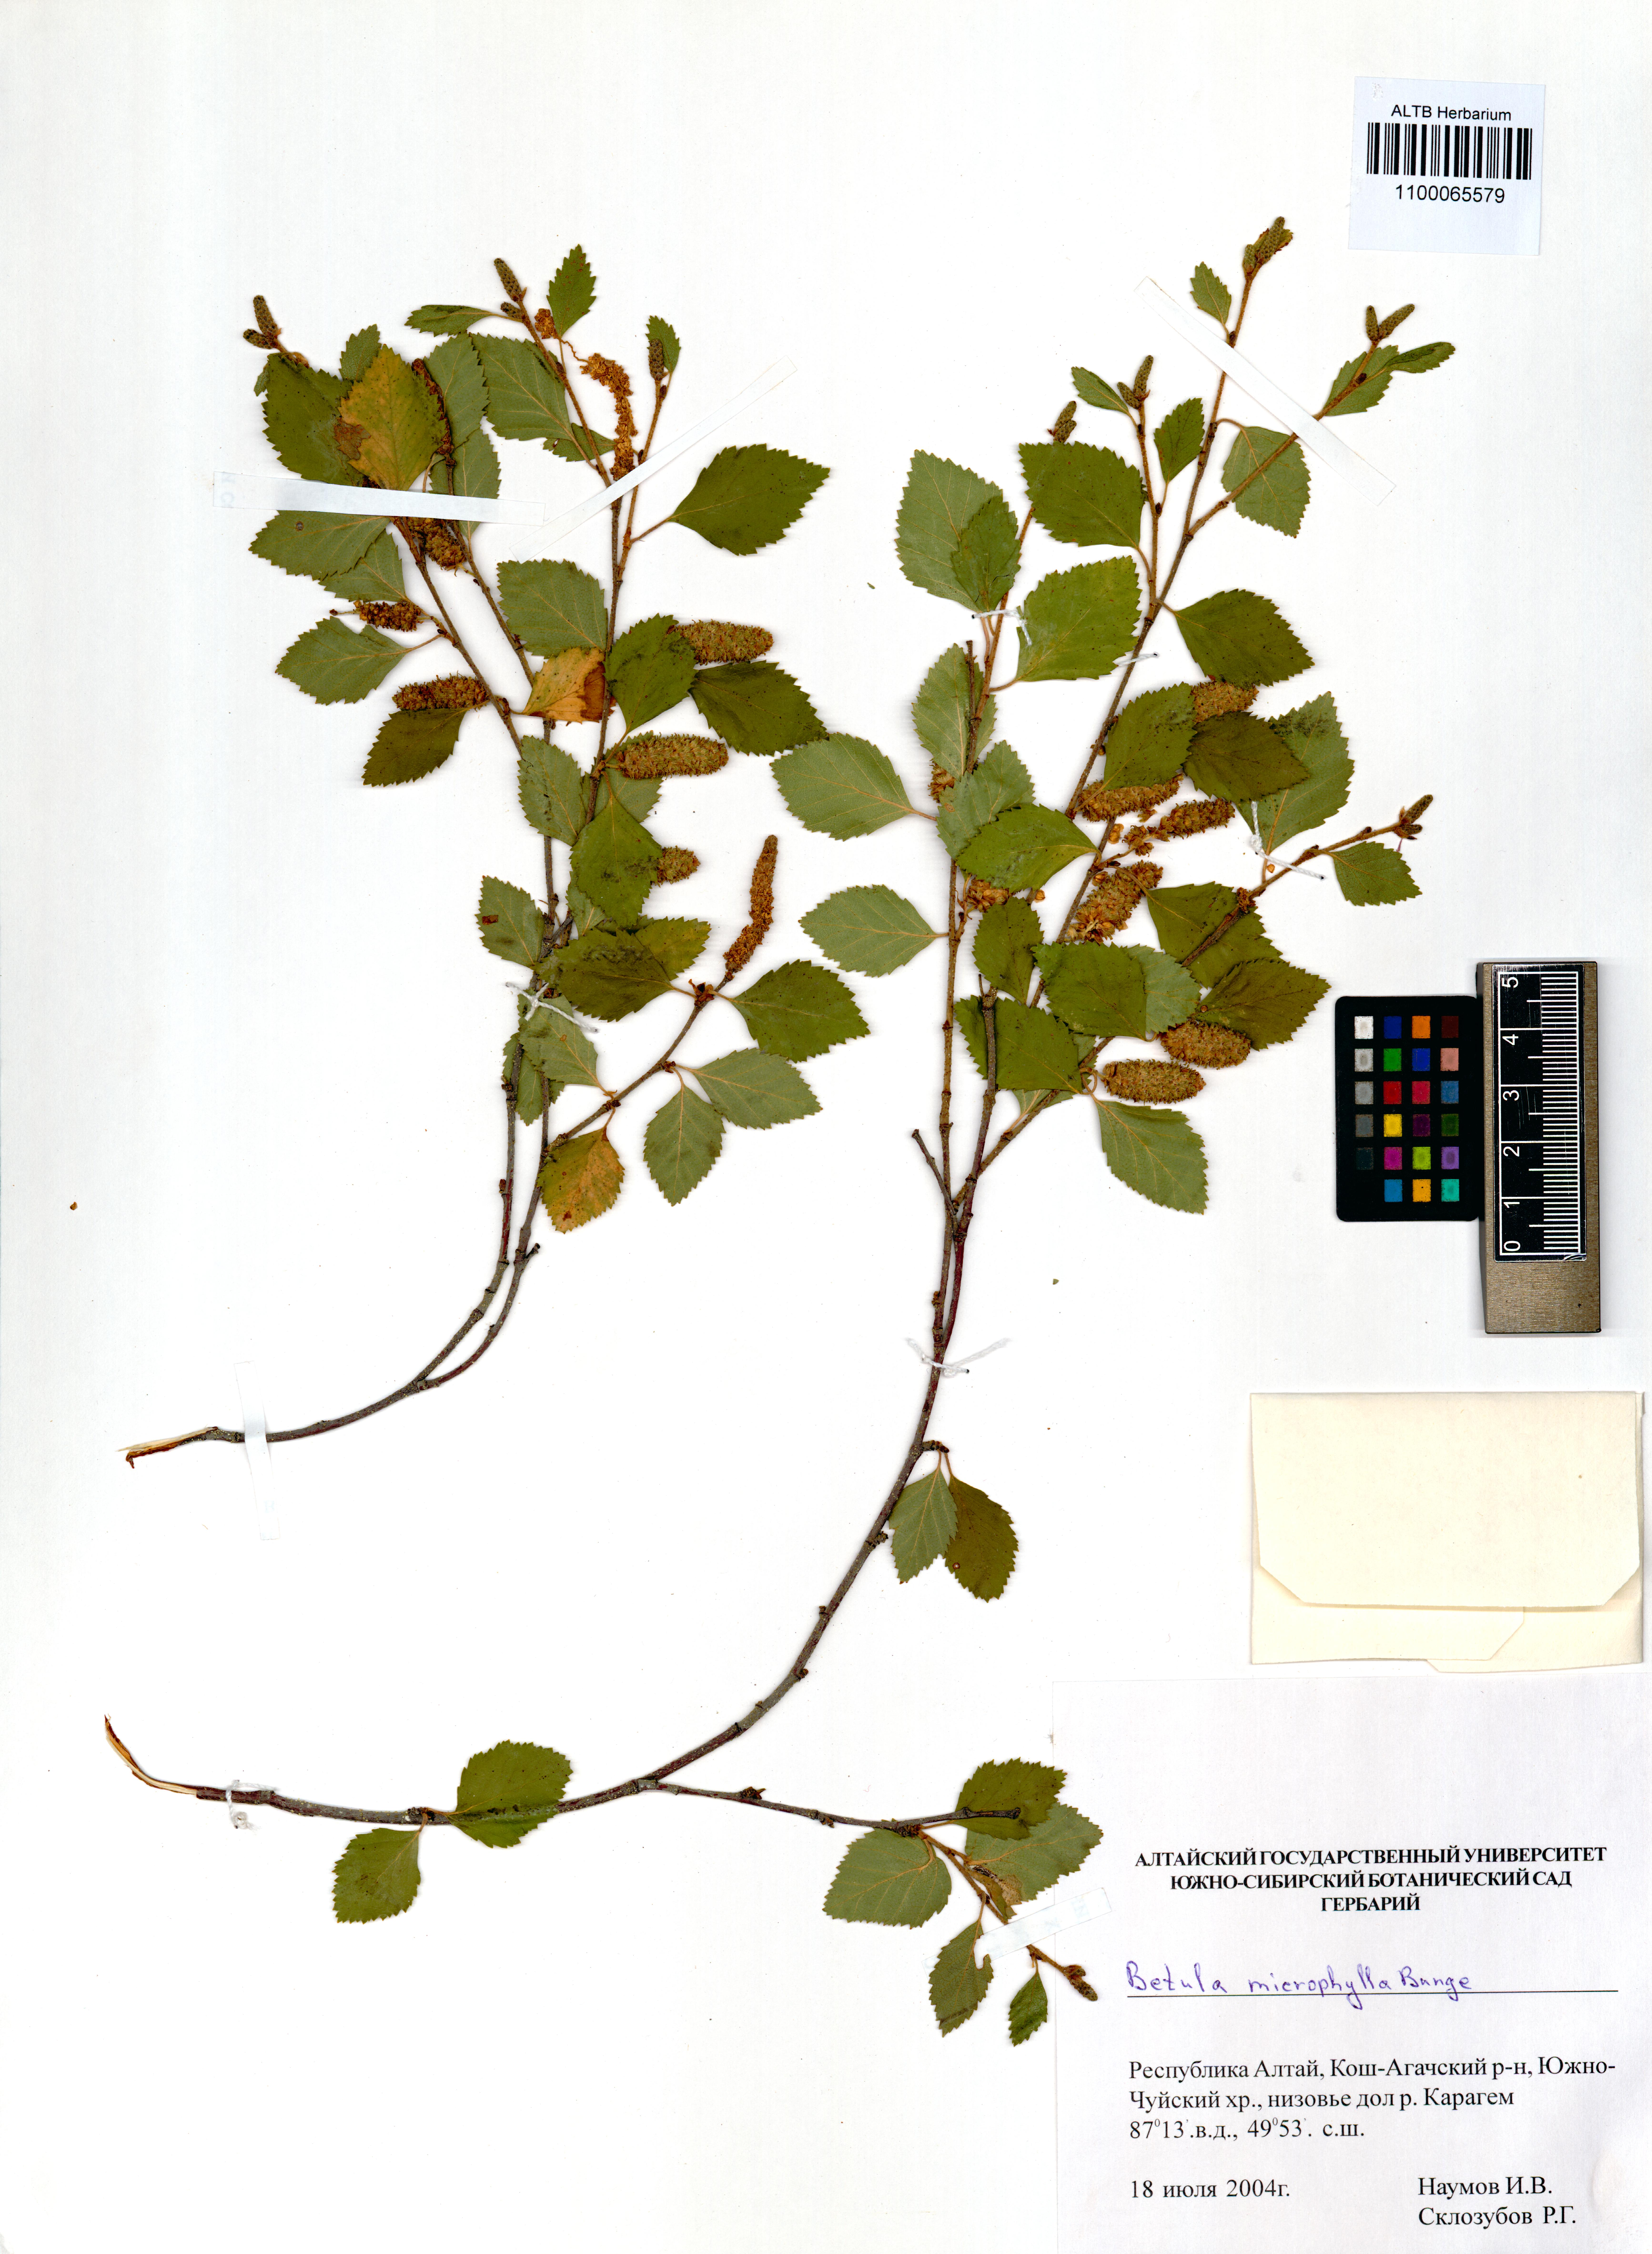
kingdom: Plantae
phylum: Tracheophyta
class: Magnoliopsida
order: Fagales
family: Betulaceae
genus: Betula
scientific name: Betula microphylla
